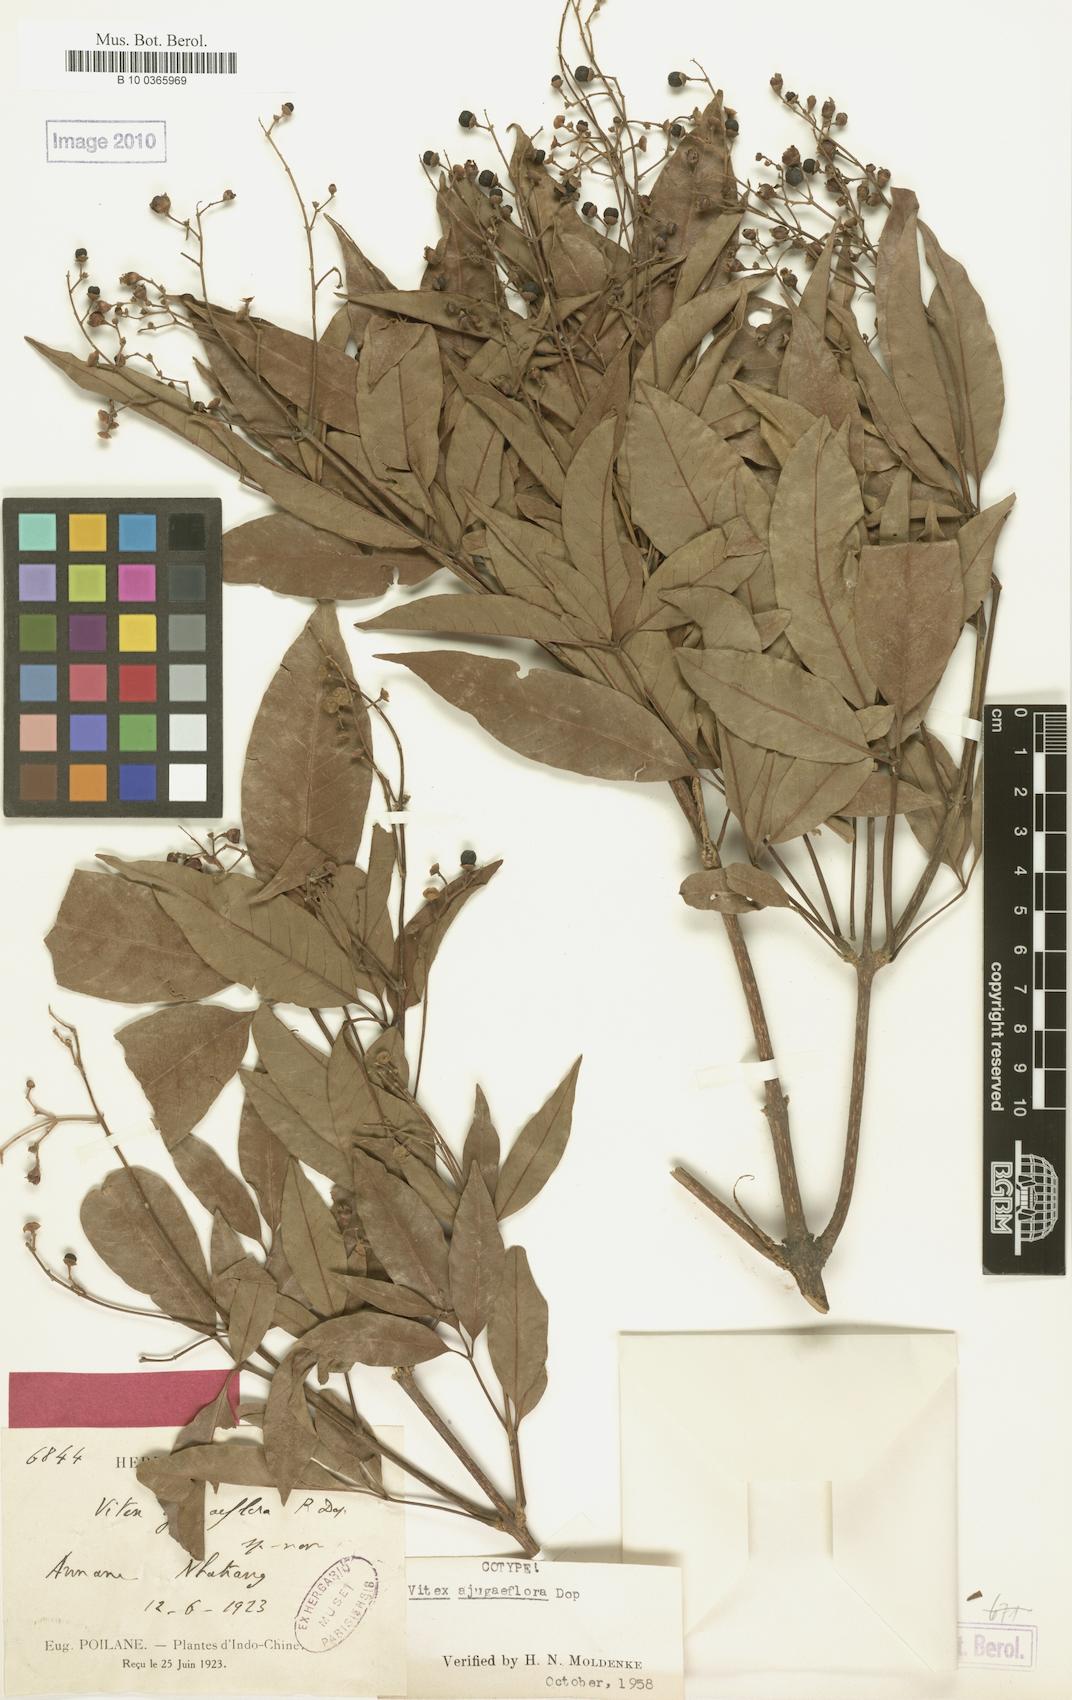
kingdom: Plantae
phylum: Tracheophyta
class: Magnoliopsida
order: Lamiales
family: Lamiaceae
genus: Vitex
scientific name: Vitex ajugiflora
